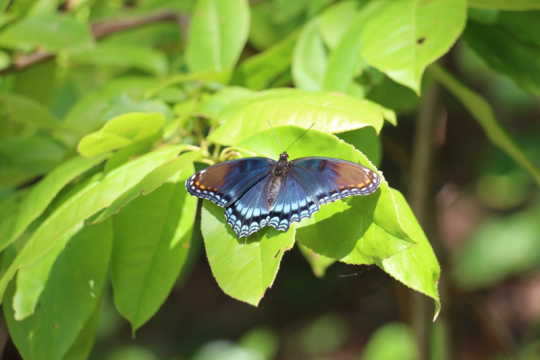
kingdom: Animalia
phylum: Arthropoda
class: Insecta
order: Lepidoptera
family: Nymphalidae
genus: Limenitis
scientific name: Limenitis arthemis
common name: Red-spotted Admiral
